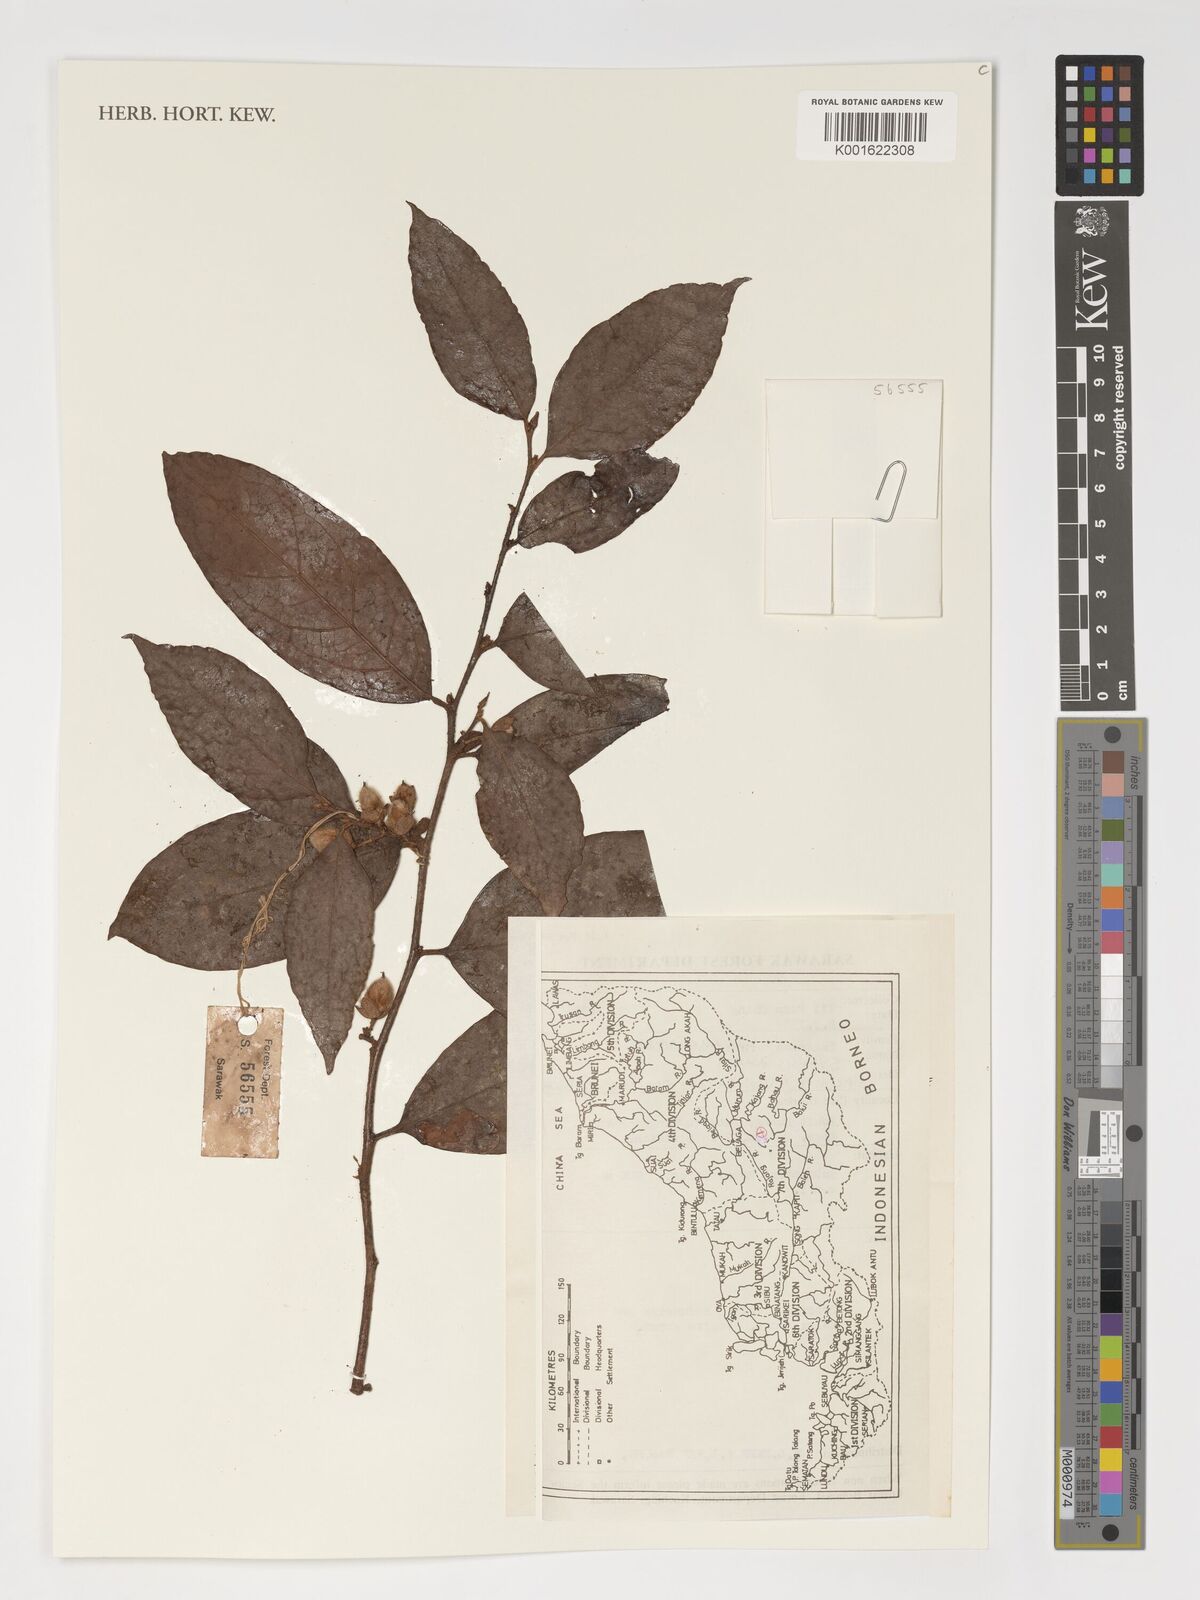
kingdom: Plantae
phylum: Tracheophyta
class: Magnoliopsida
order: Saxifragales
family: Hamamelidaceae
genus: Distyliopsis
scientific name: Distyliopsis dunnii
